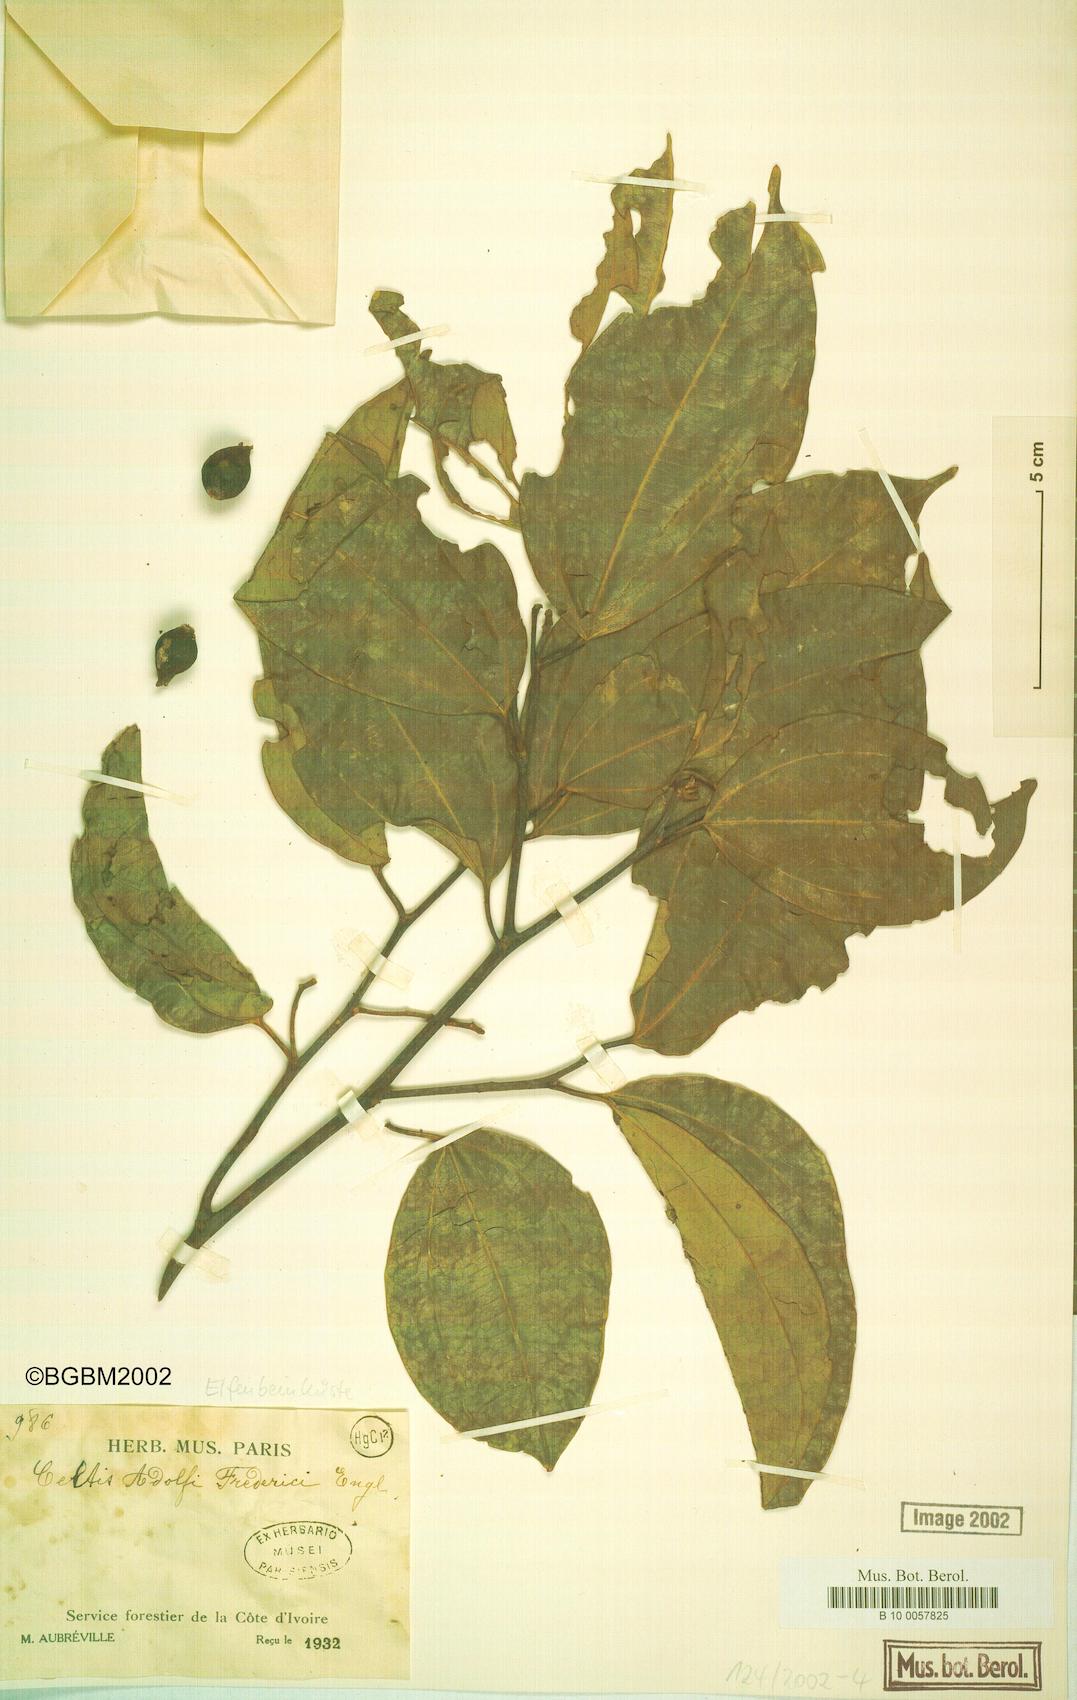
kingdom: Plantae
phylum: Tracheophyta
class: Magnoliopsida
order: Rosales
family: Cannabaceae
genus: Celtis
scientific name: Celtis adolfi-friderici
